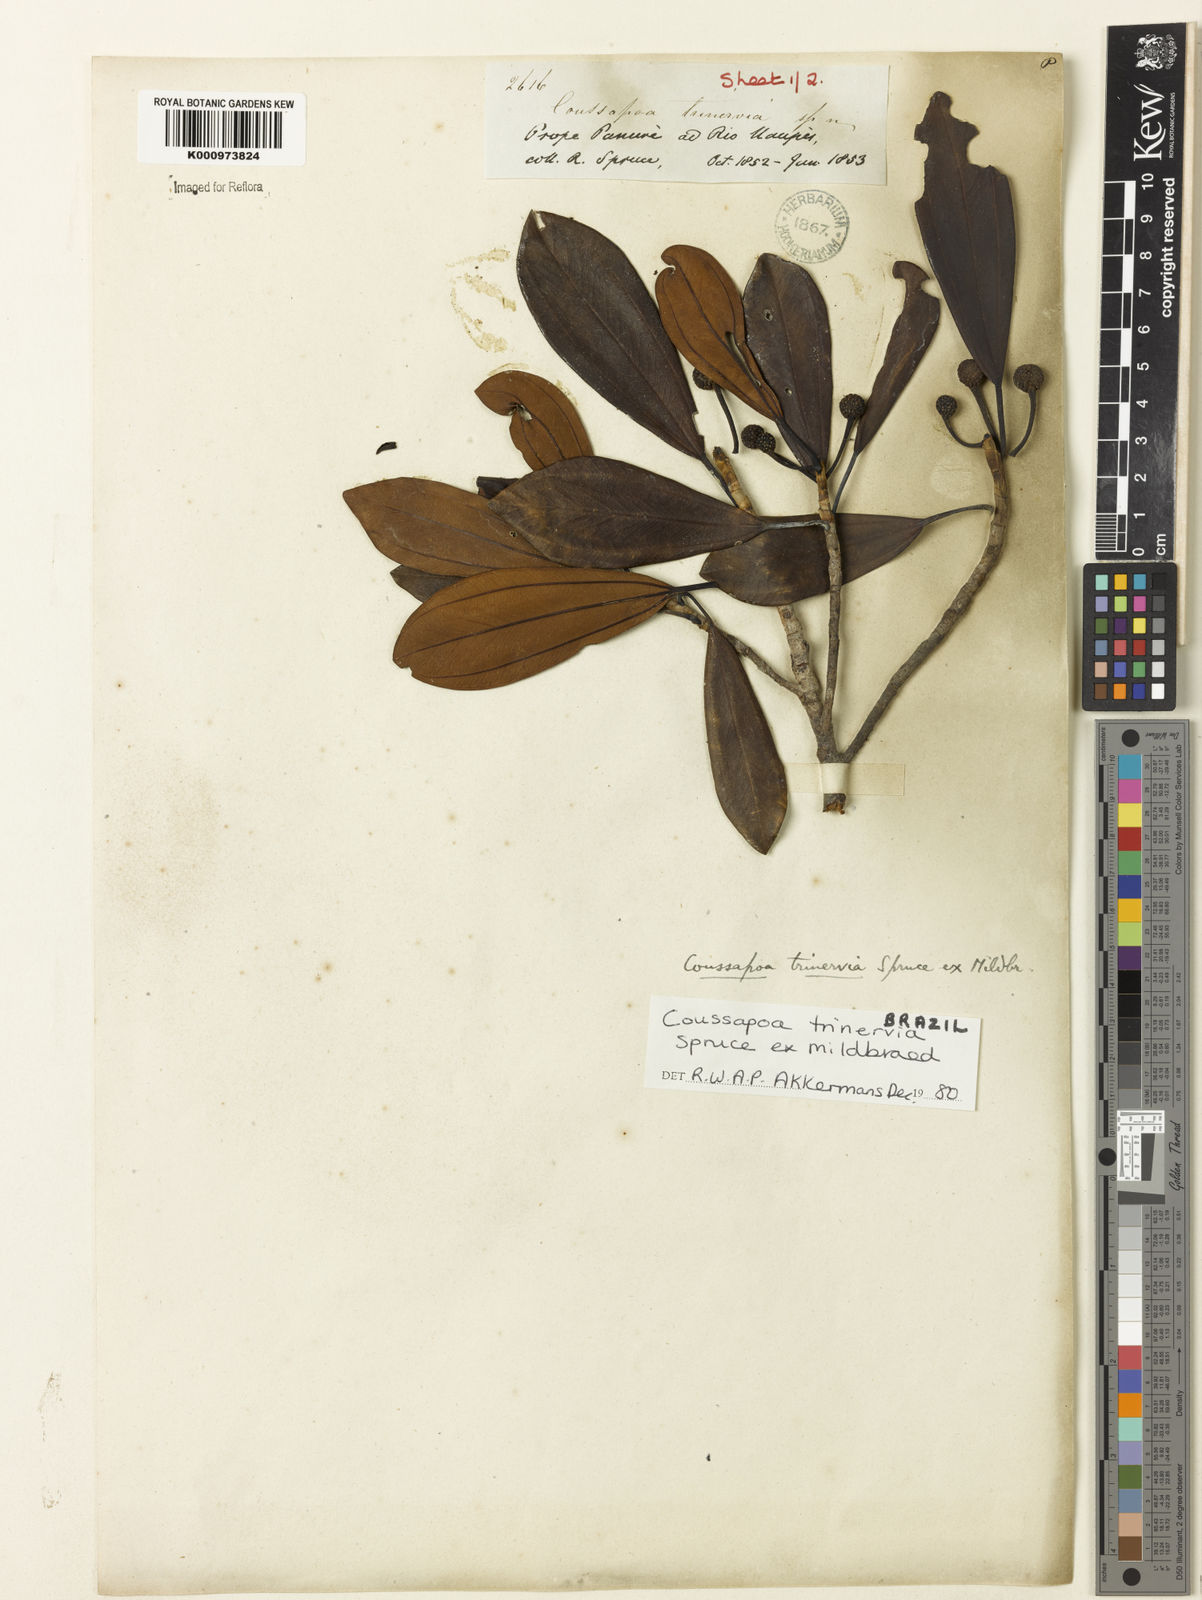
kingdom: Plantae
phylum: Tracheophyta
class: Magnoliopsida
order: Rosales
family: Urticaceae
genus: Coussapoa
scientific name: Coussapoa trinervia
